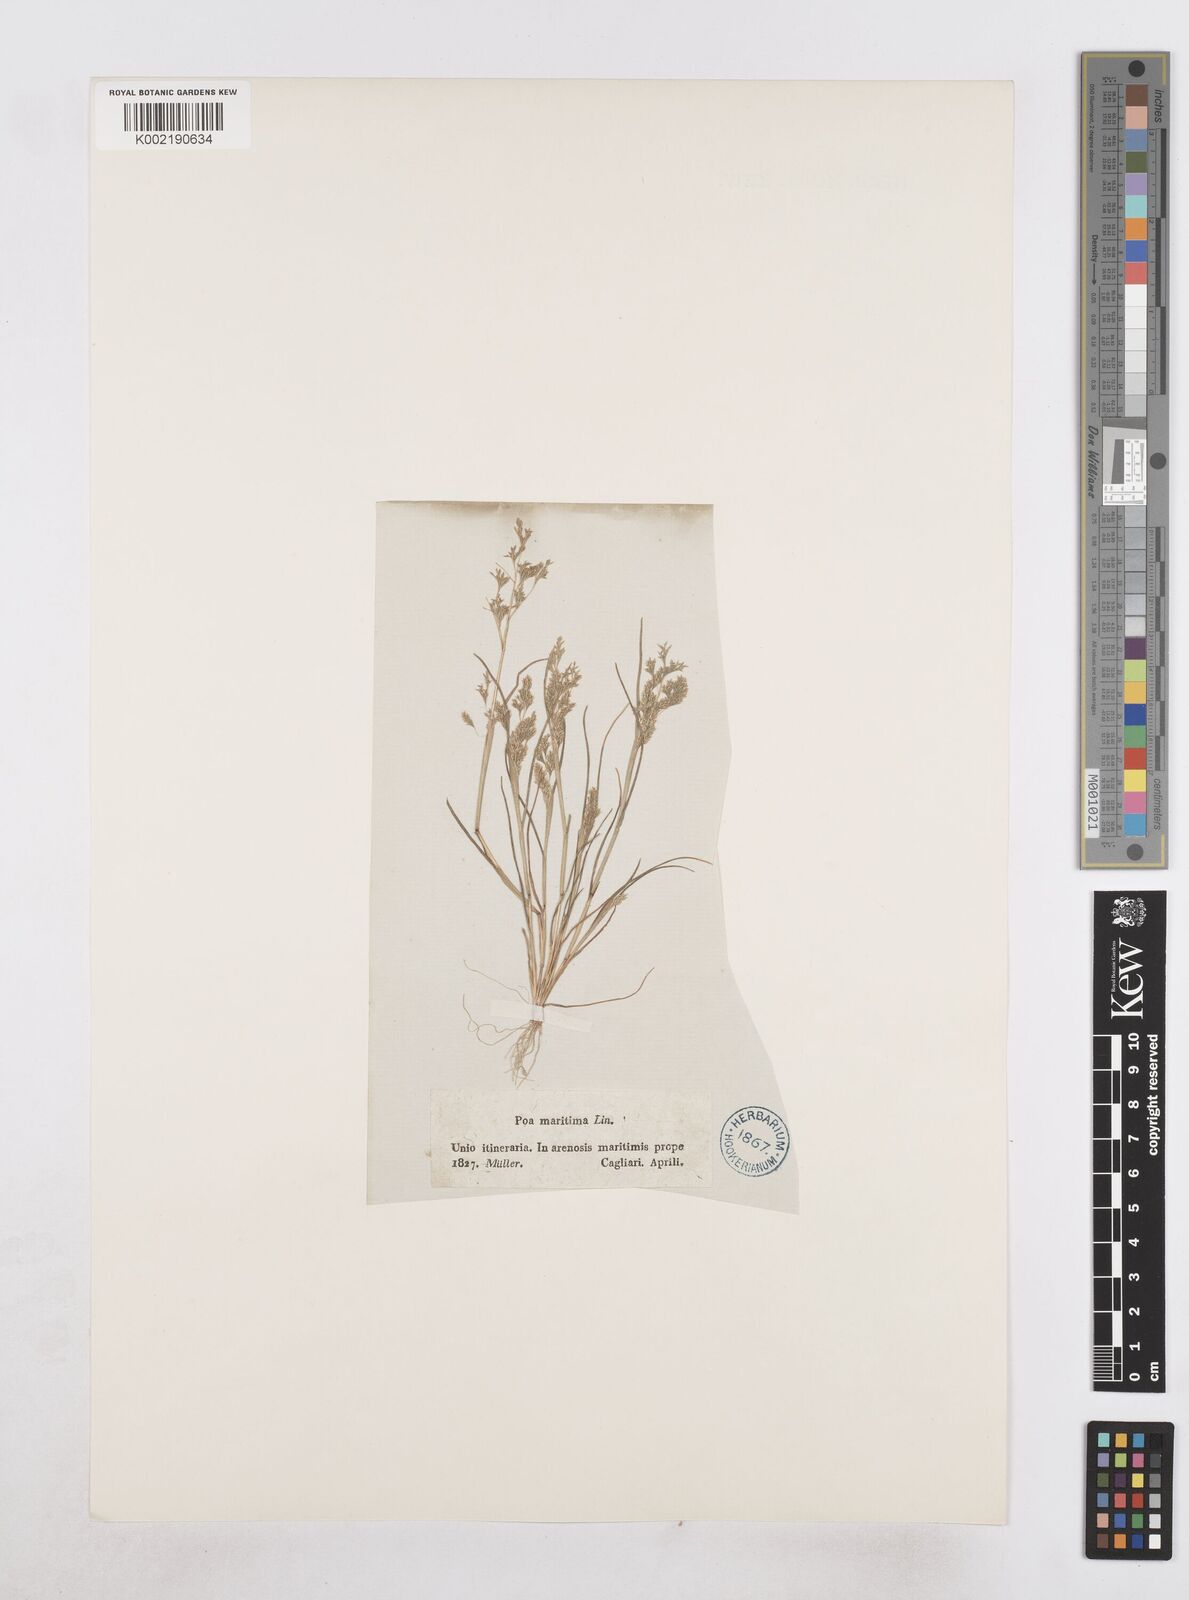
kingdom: Plantae
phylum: Tracheophyta
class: Liliopsida
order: Poales
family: Poaceae
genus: Sphenopus
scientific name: Sphenopus divaricatus
